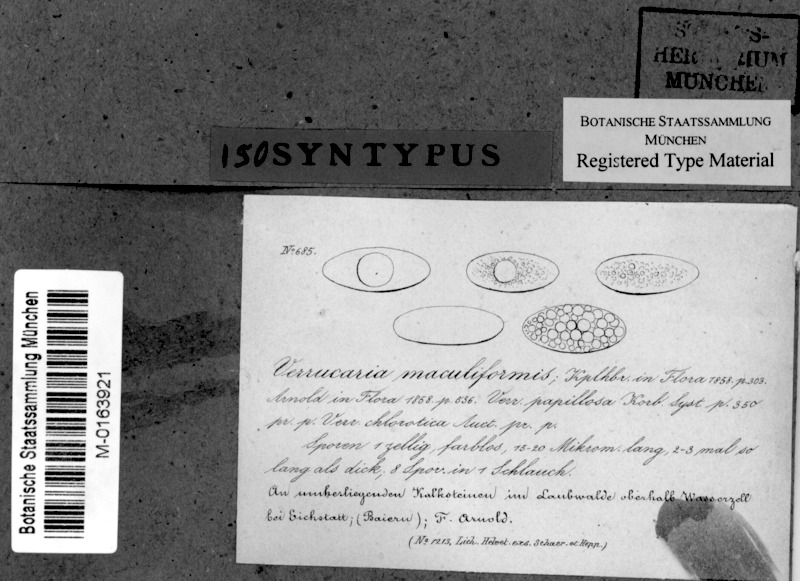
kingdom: Fungi
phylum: Ascomycota
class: Eurotiomycetes
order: Verrucariales
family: Verrucariaceae
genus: Verrucaria
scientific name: Verrucaria maculiformis
